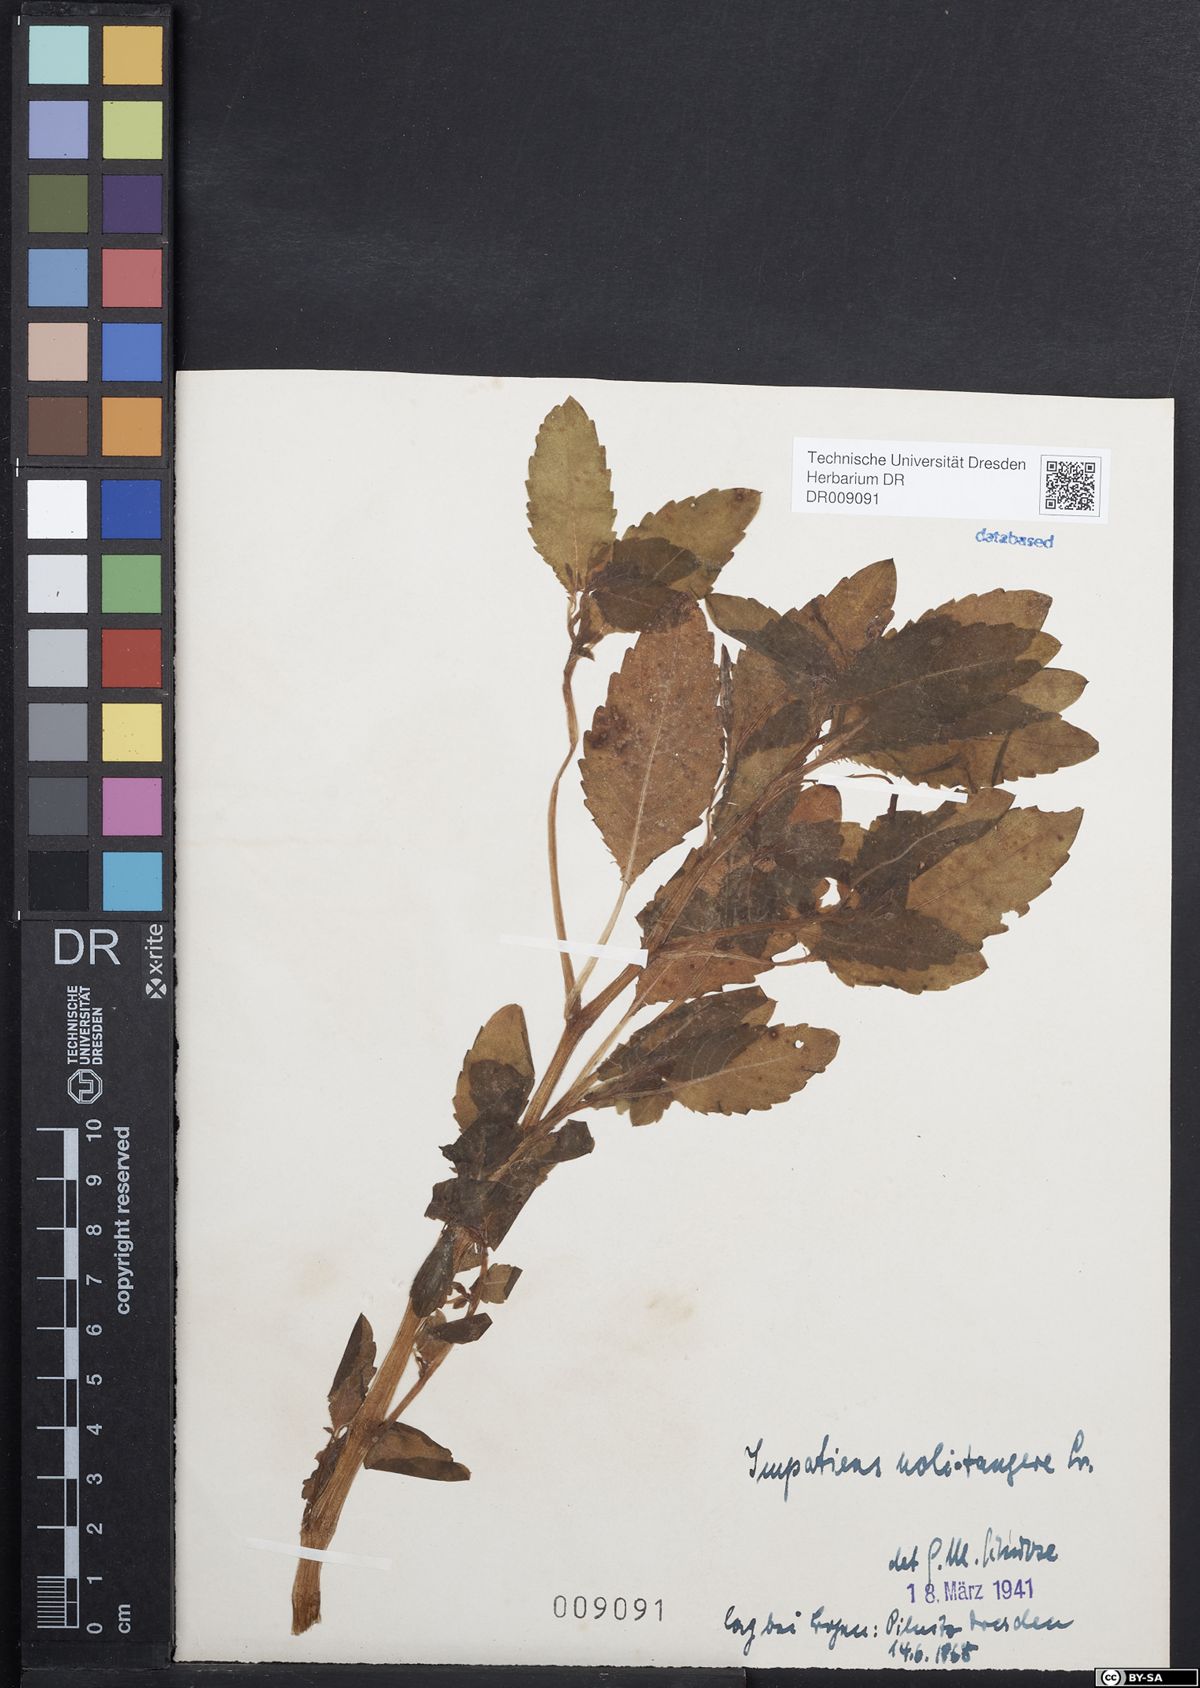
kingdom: Plantae
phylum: Tracheophyta
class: Magnoliopsida
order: Ericales
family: Balsaminaceae
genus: Impatiens
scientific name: Impatiens noli-tangere
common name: Touch-me-not balsam
